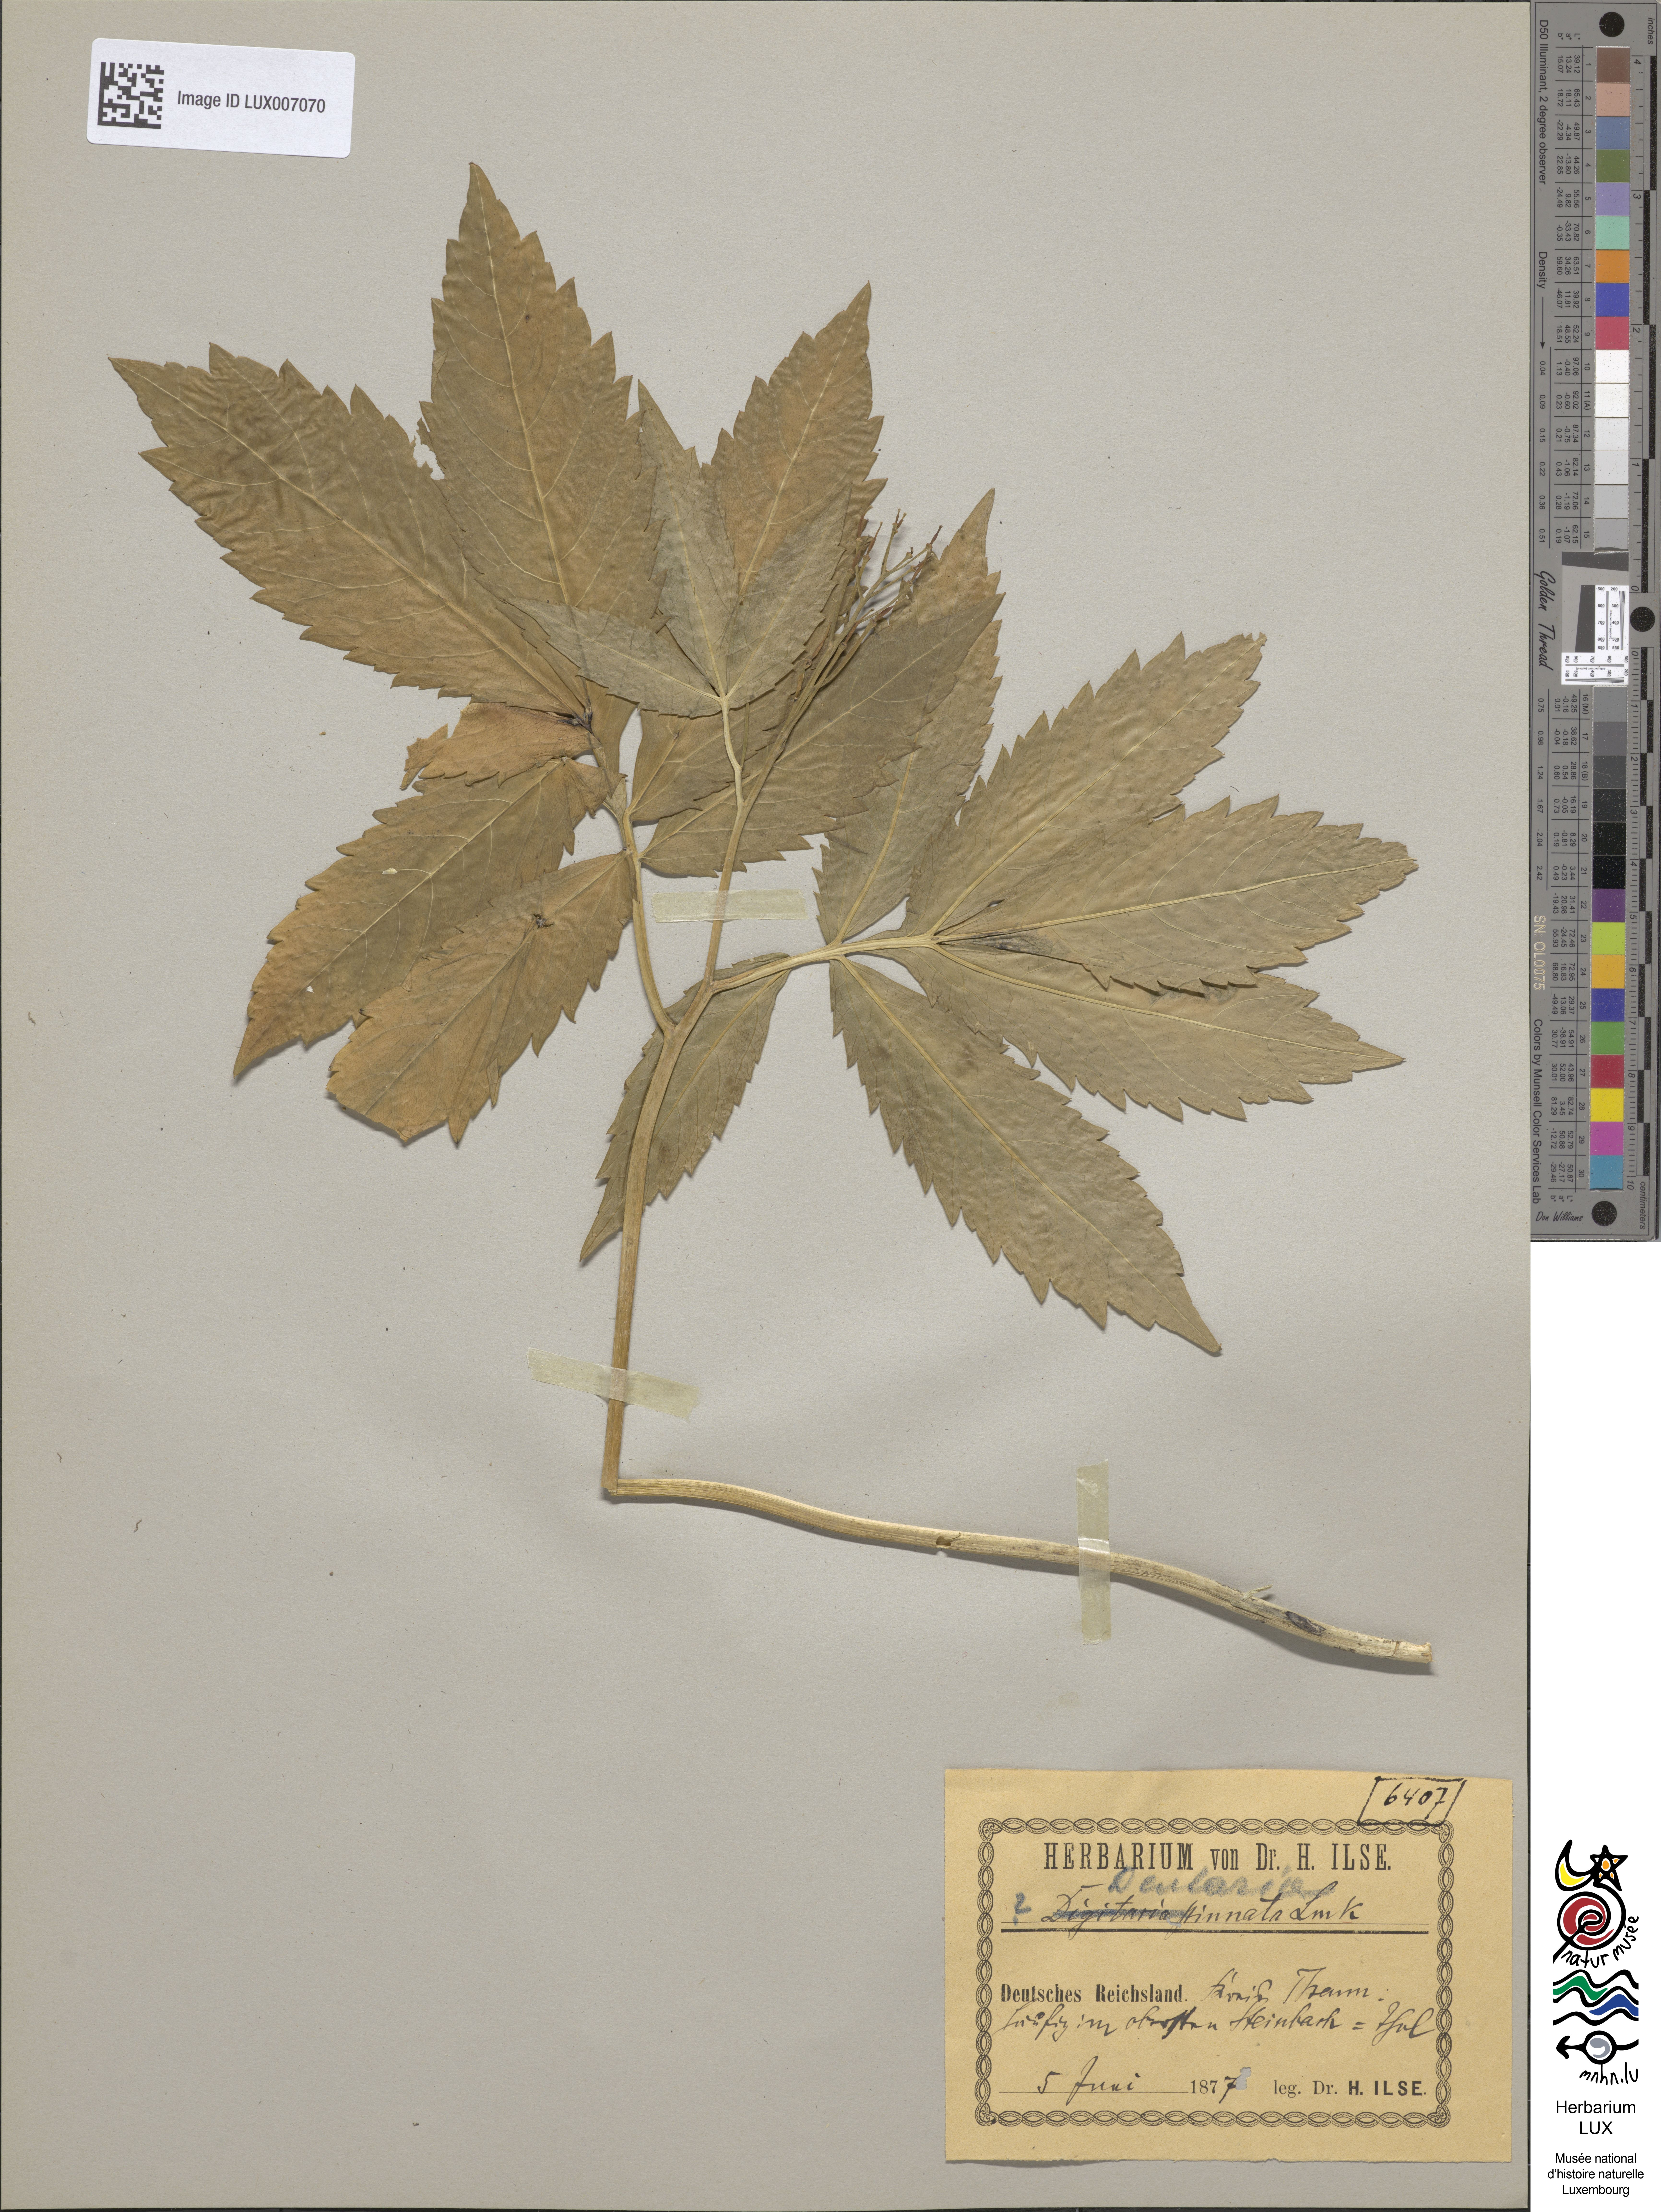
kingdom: Plantae
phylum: Tracheophyta
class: Magnoliopsida
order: Brassicales
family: Brassicaceae
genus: Cardamine
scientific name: Cardamine heptaphylla
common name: Pinnate coralroot
